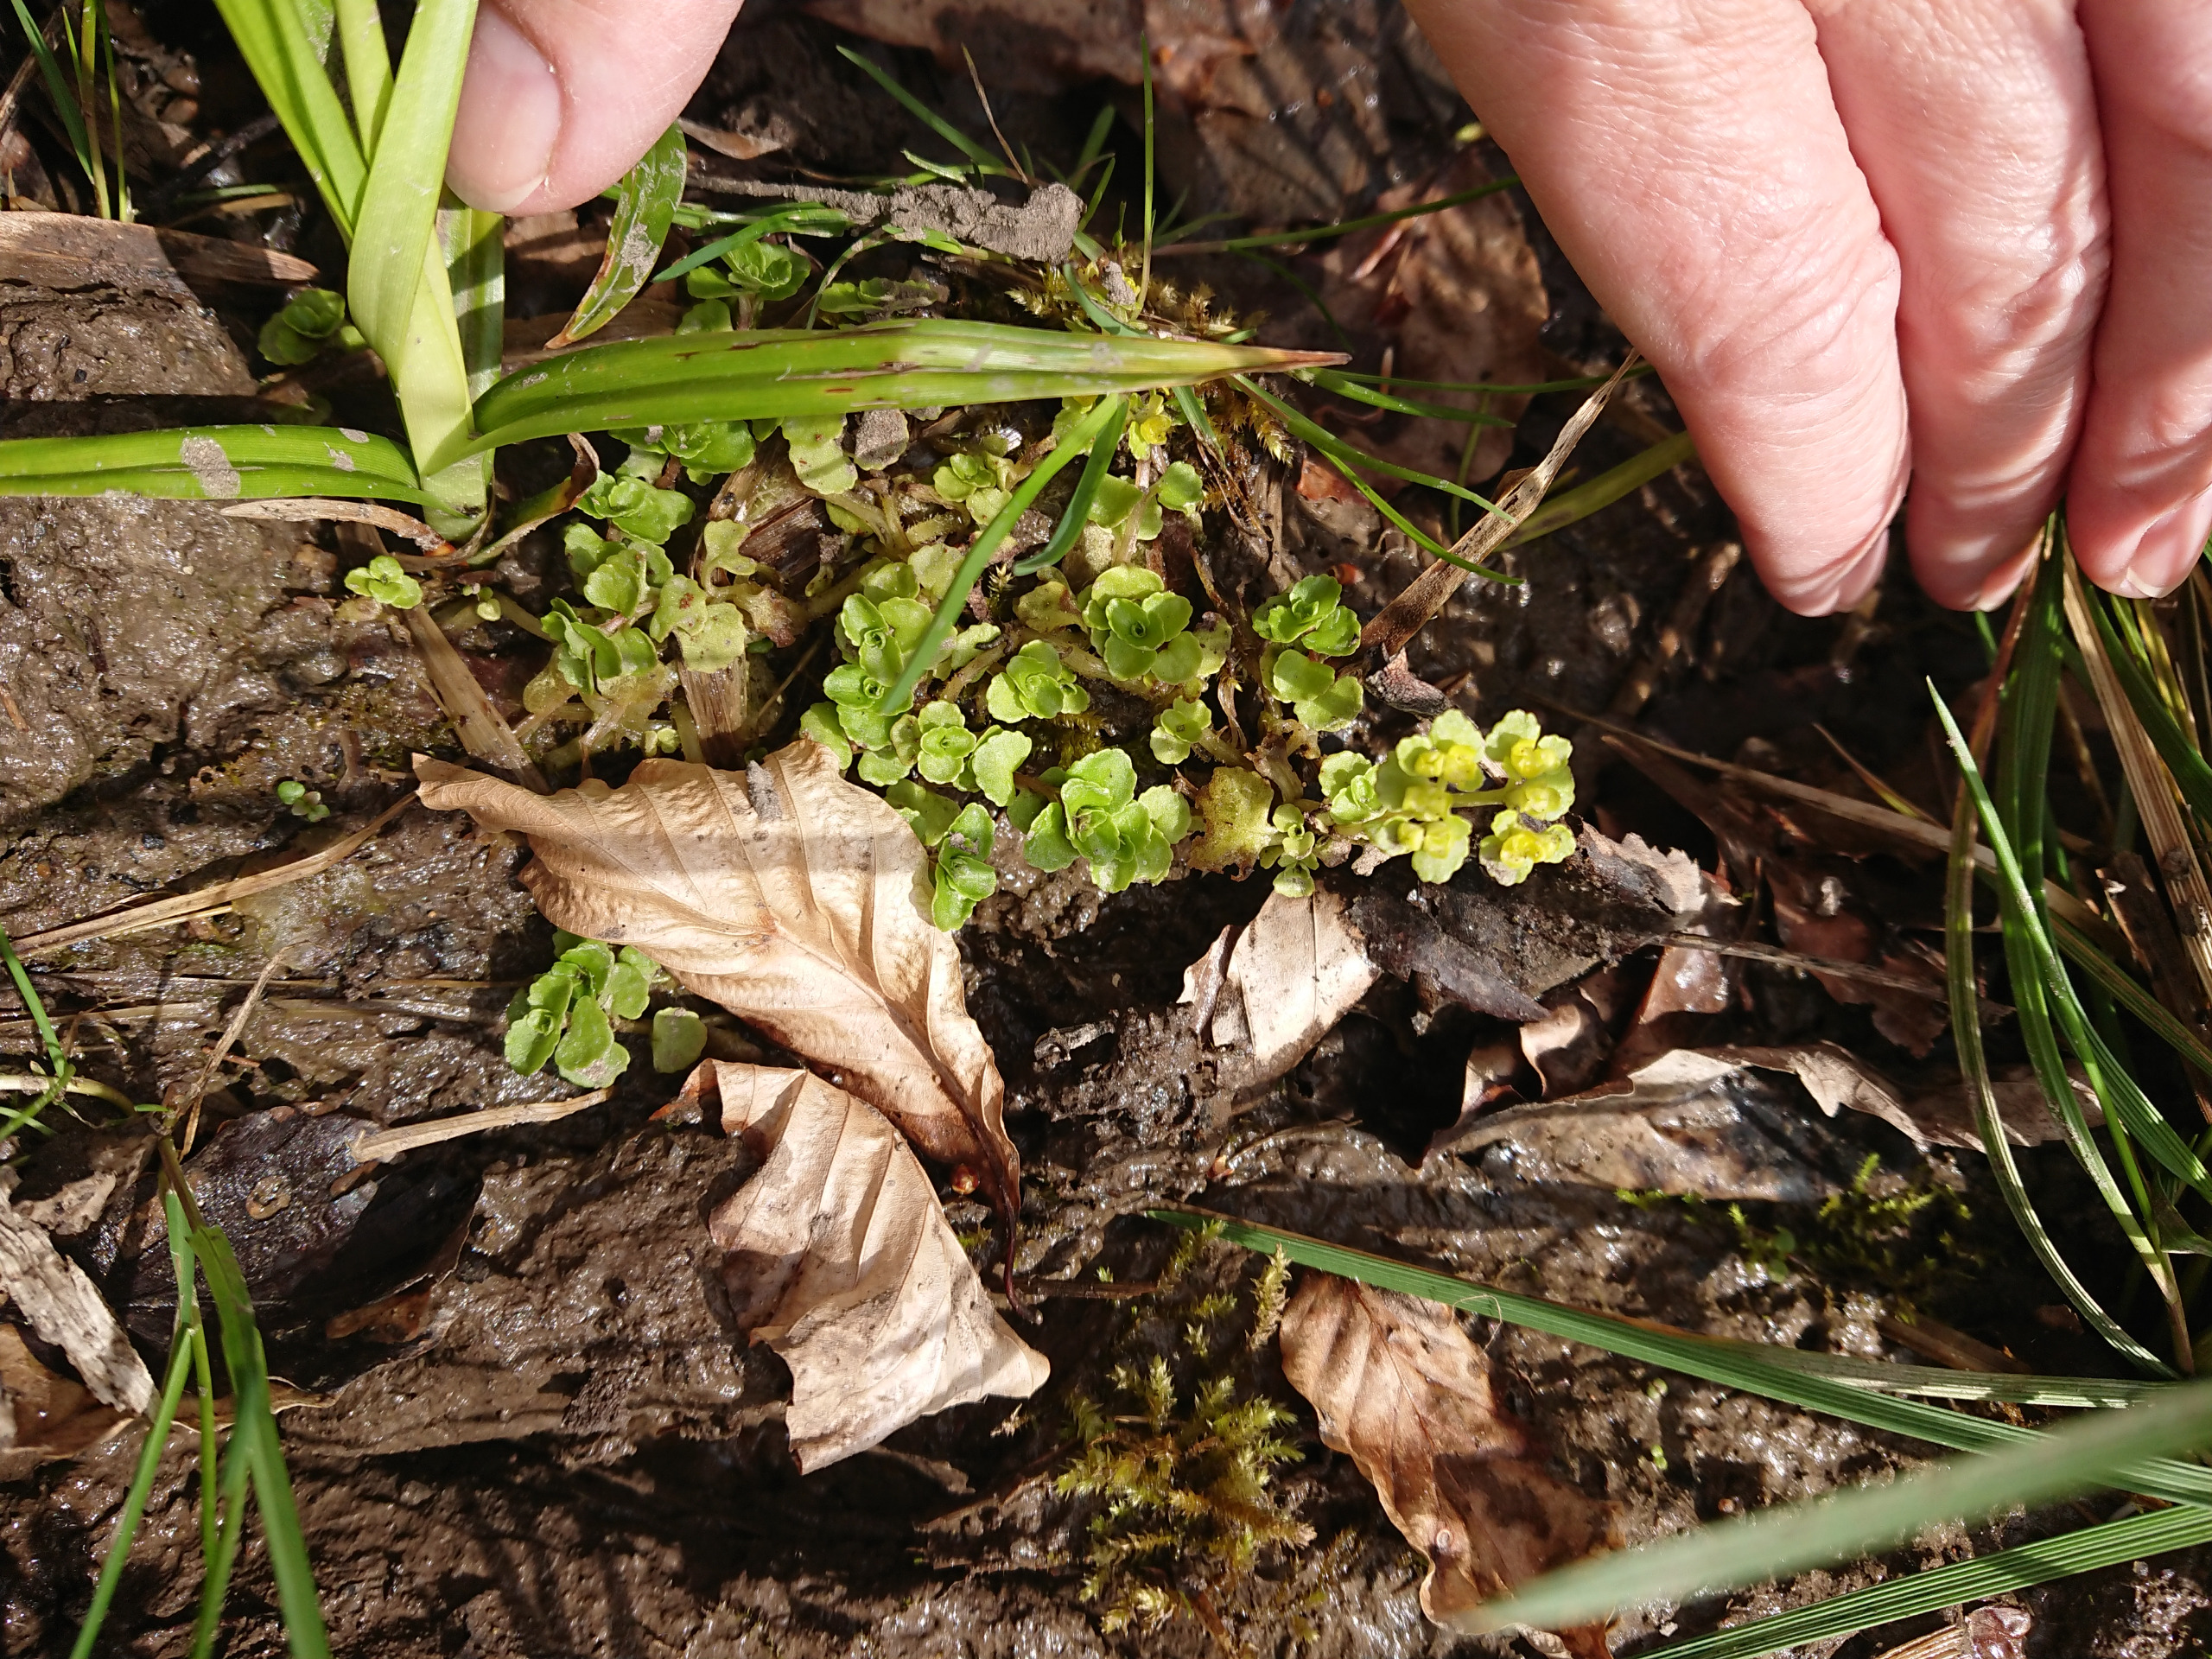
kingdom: Plantae
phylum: Tracheophyta
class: Magnoliopsida
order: Saxifragales
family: Saxifragaceae
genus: Chrysosplenium
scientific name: Chrysosplenium oppositifolium
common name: Småbladet milturt
